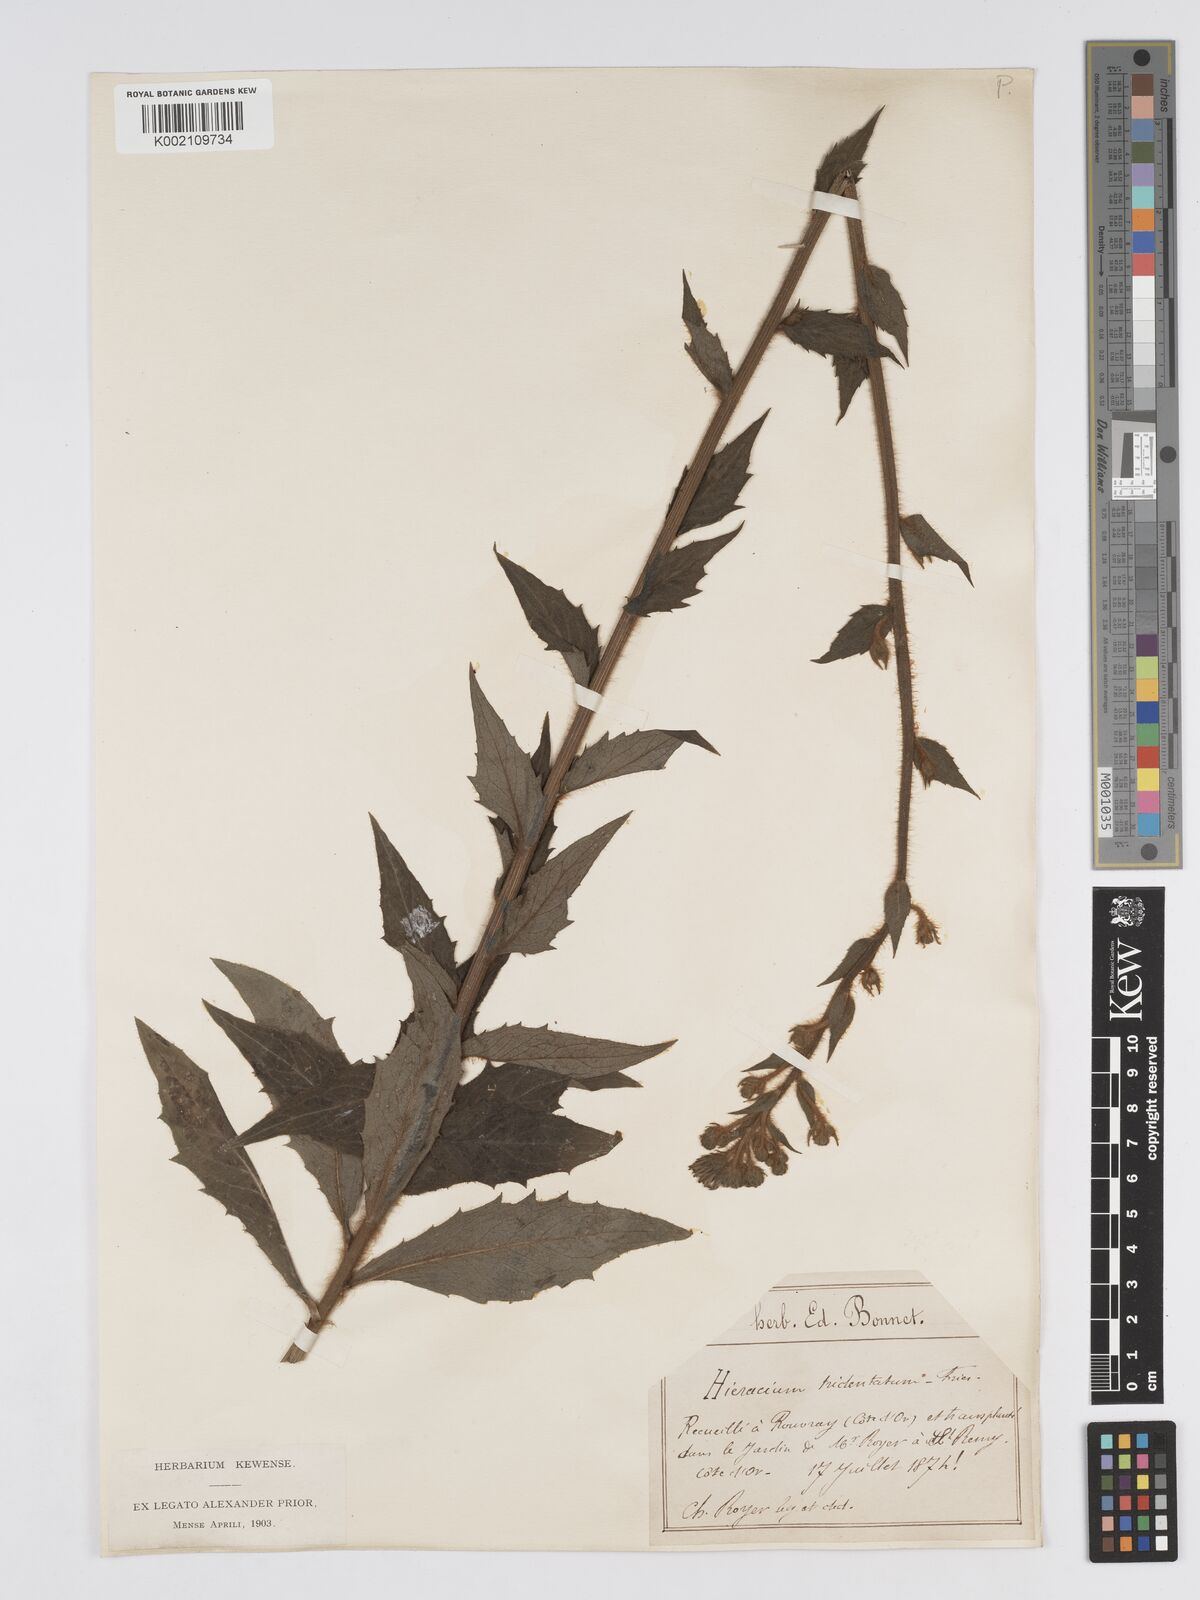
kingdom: Plantae
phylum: Tracheophyta
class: Magnoliopsida
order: Asterales
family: Asteraceae
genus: Hieracium
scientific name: Hieracium patens
